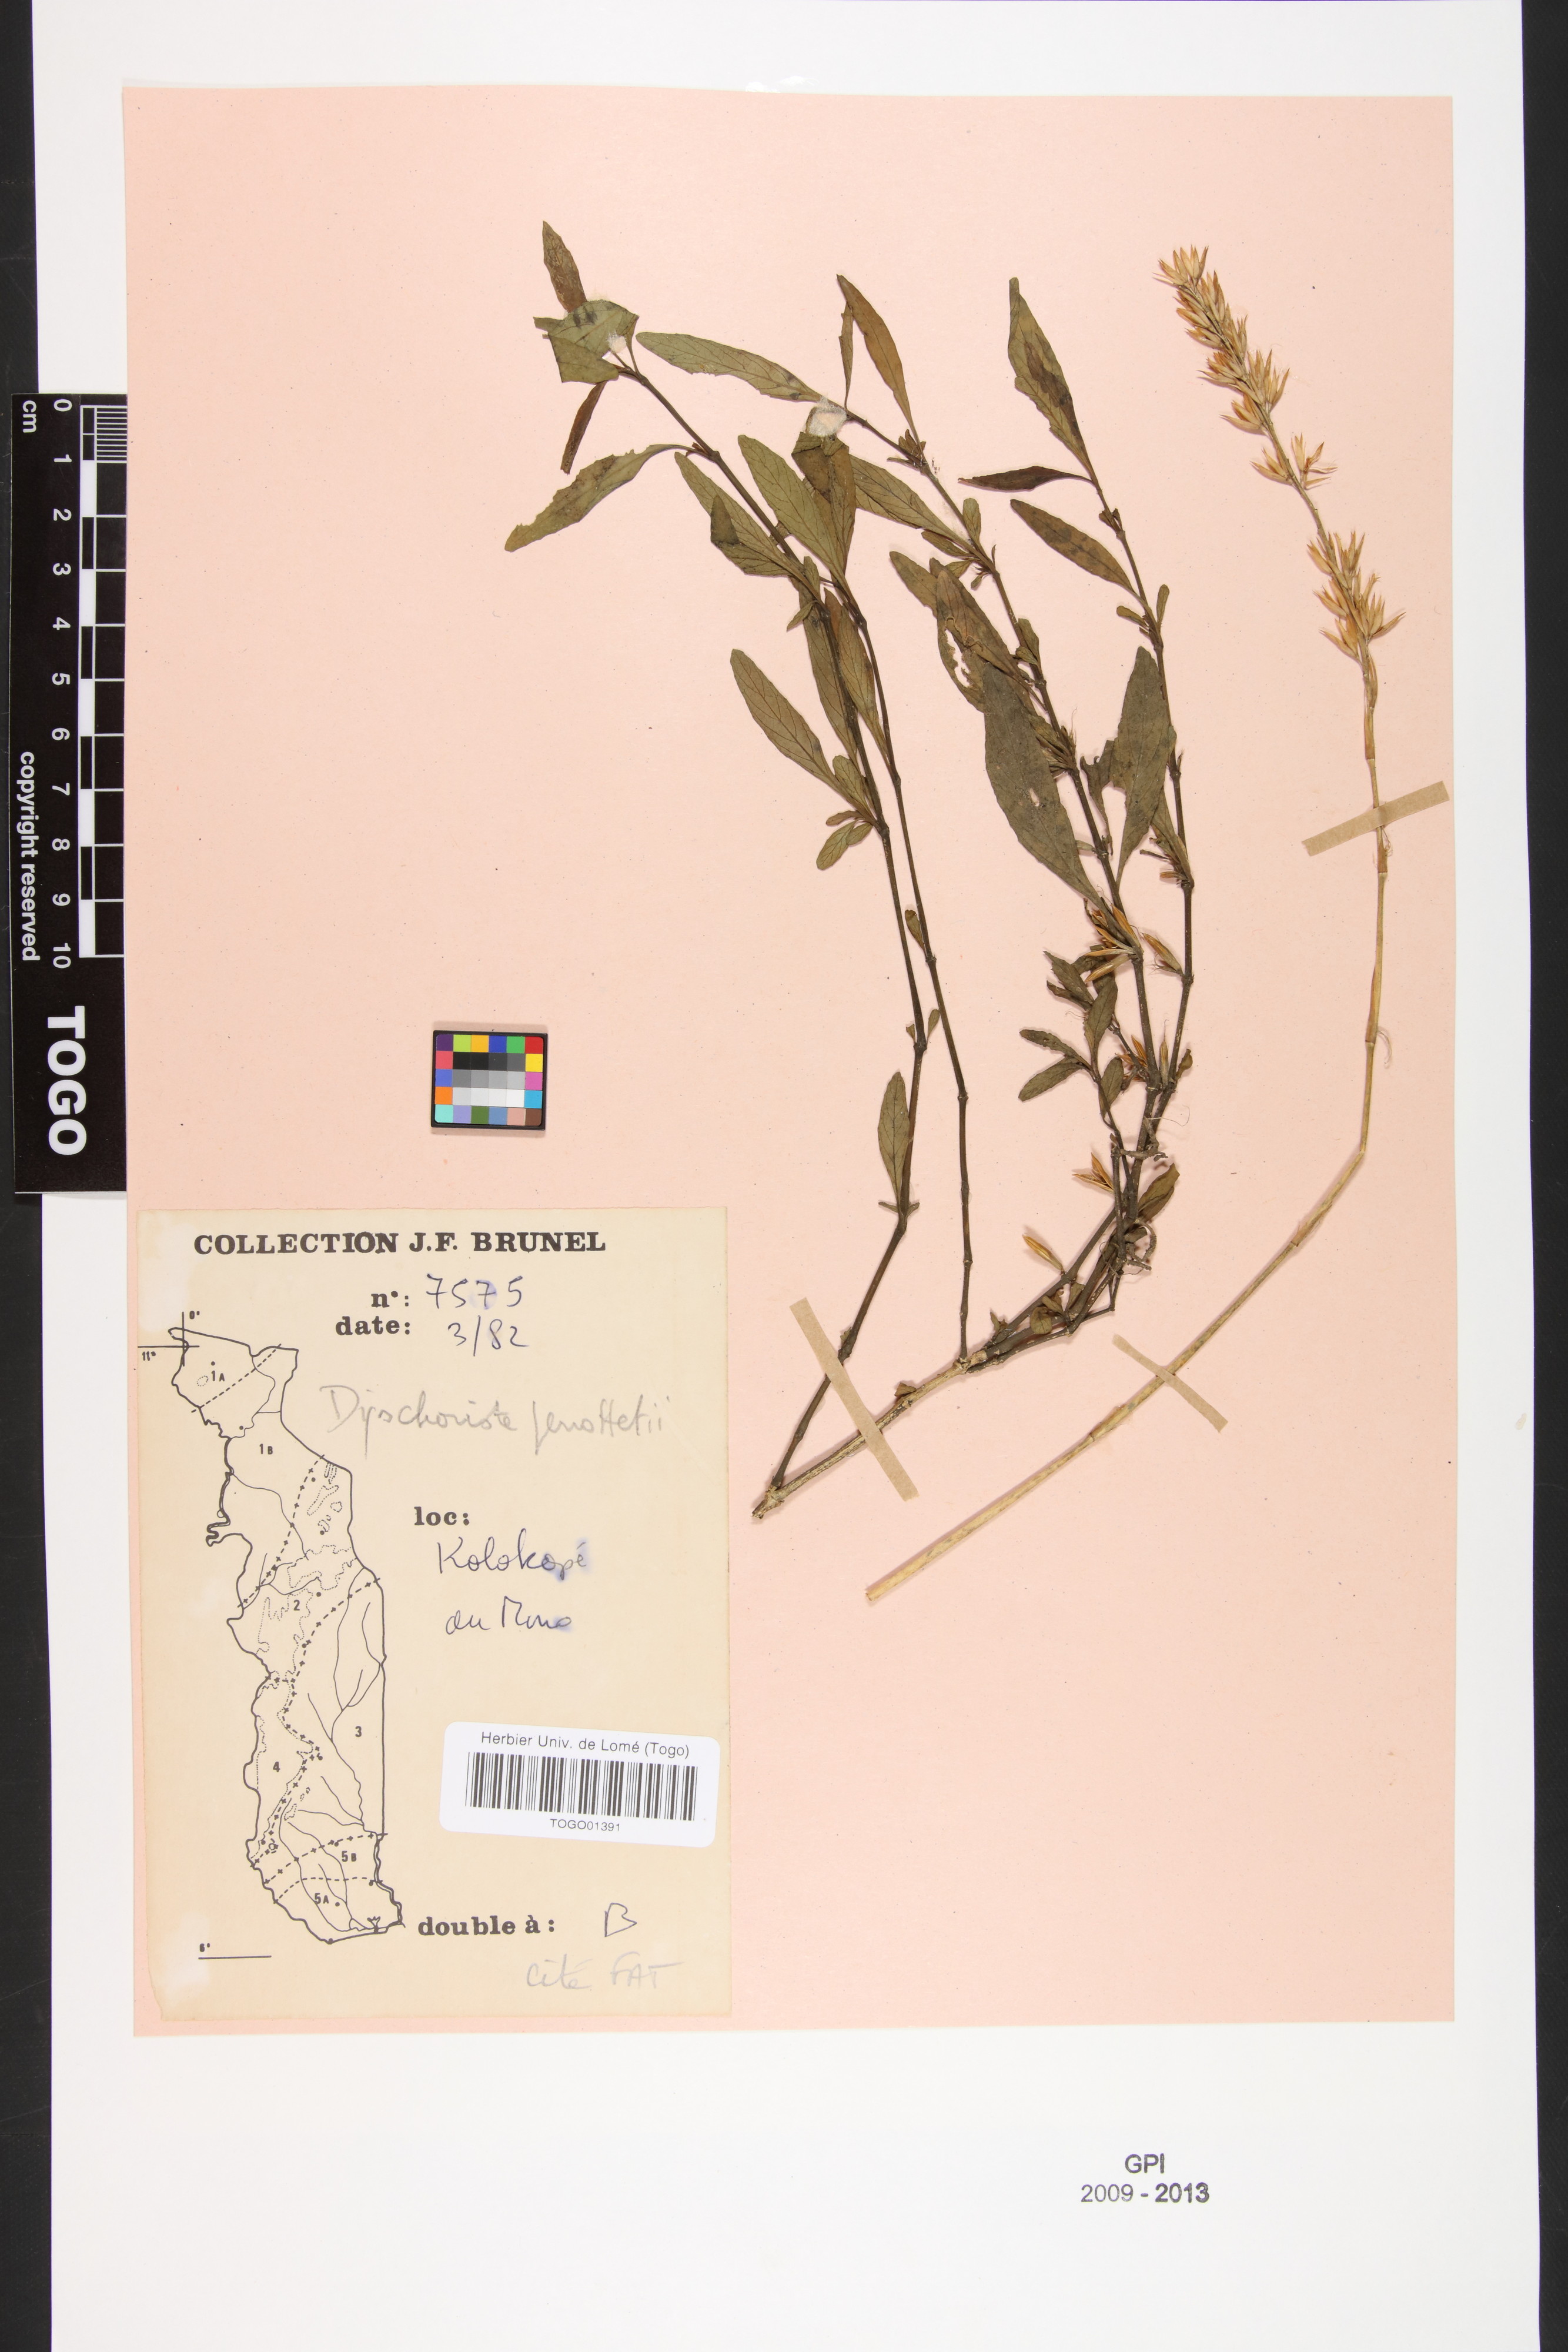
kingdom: Plantae
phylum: Tracheophyta
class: Magnoliopsida
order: Lamiales
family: Acanthaceae
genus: Dyschoriste
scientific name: Dyschoriste nagchana
